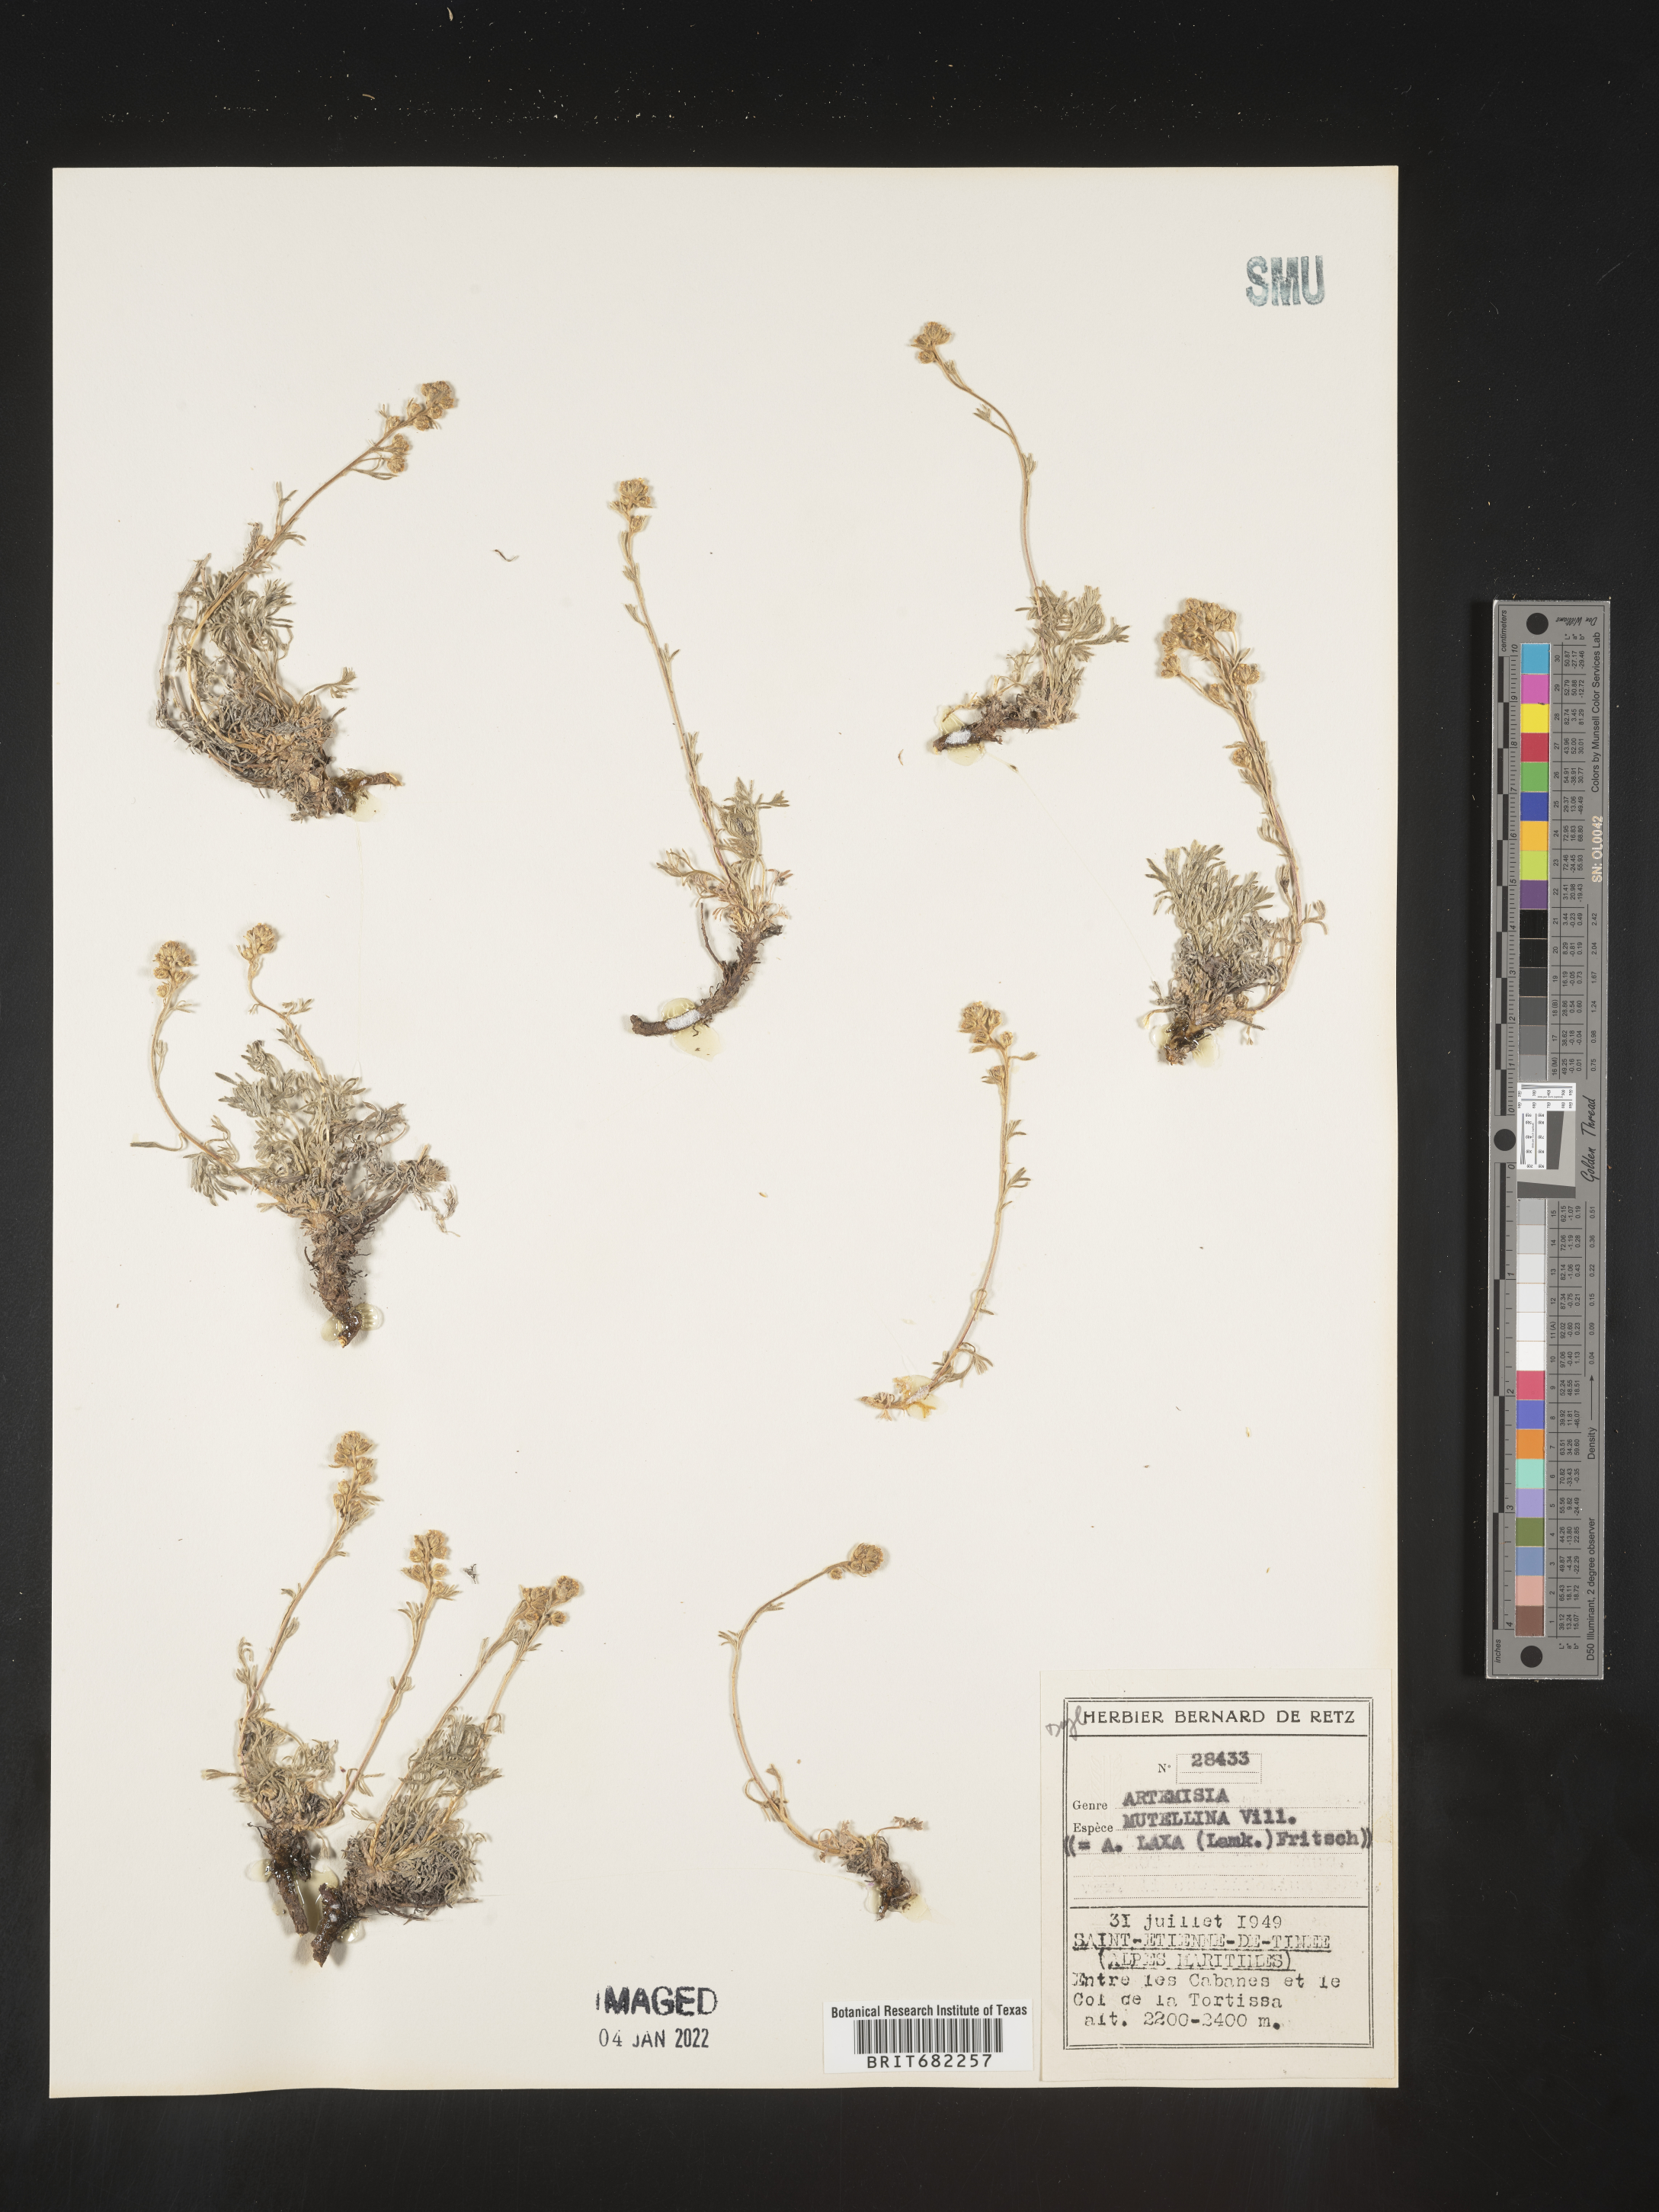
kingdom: Plantae
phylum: Tracheophyta
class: Magnoliopsida
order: Asterales
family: Asteraceae
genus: Artemisia
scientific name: Artemisia
